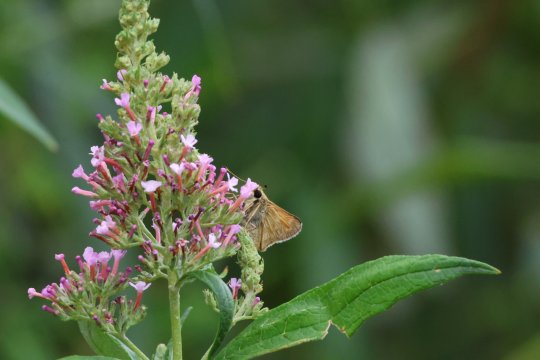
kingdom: Animalia
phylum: Arthropoda
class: Insecta
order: Lepidoptera
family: Hesperiidae
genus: Copaeodes
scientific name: Copaeodes aurantiaca
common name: Orange Skipperling
